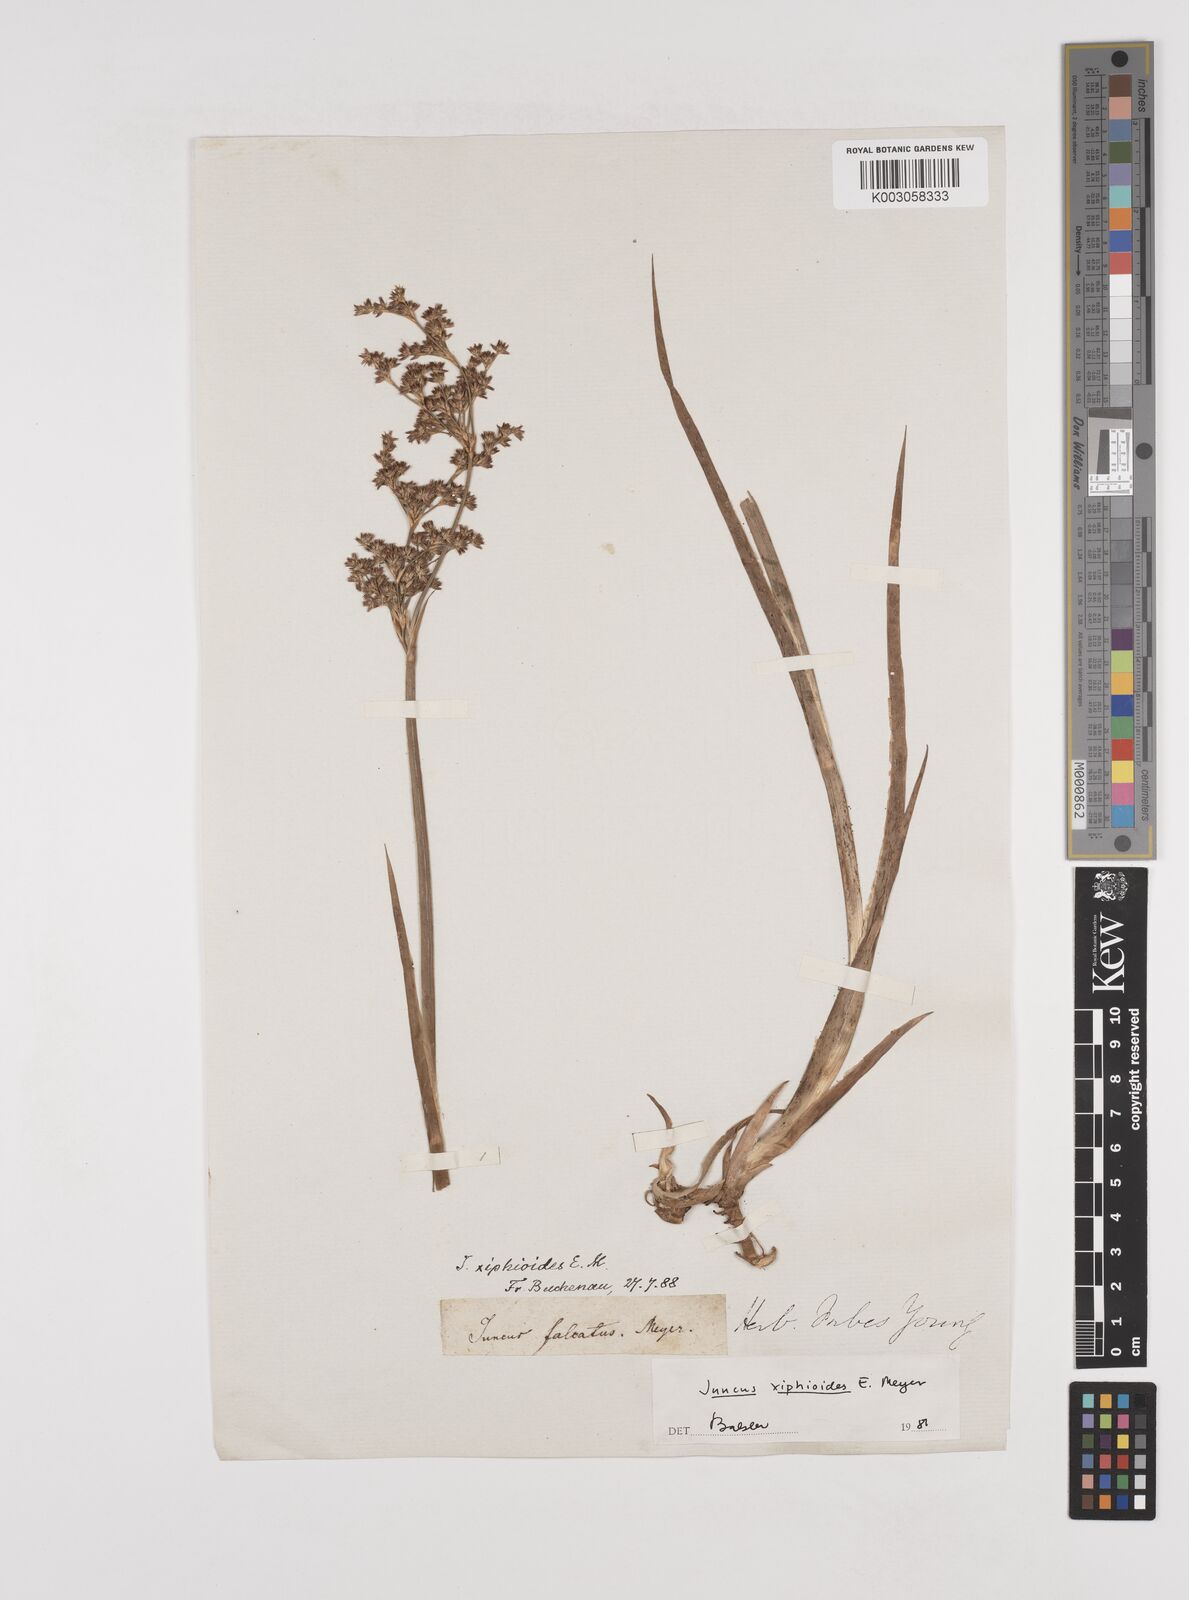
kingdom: Plantae
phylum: Tracheophyta
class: Liliopsida
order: Poales
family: Juncaceae
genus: Juncus
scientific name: Juncus xiphioides
